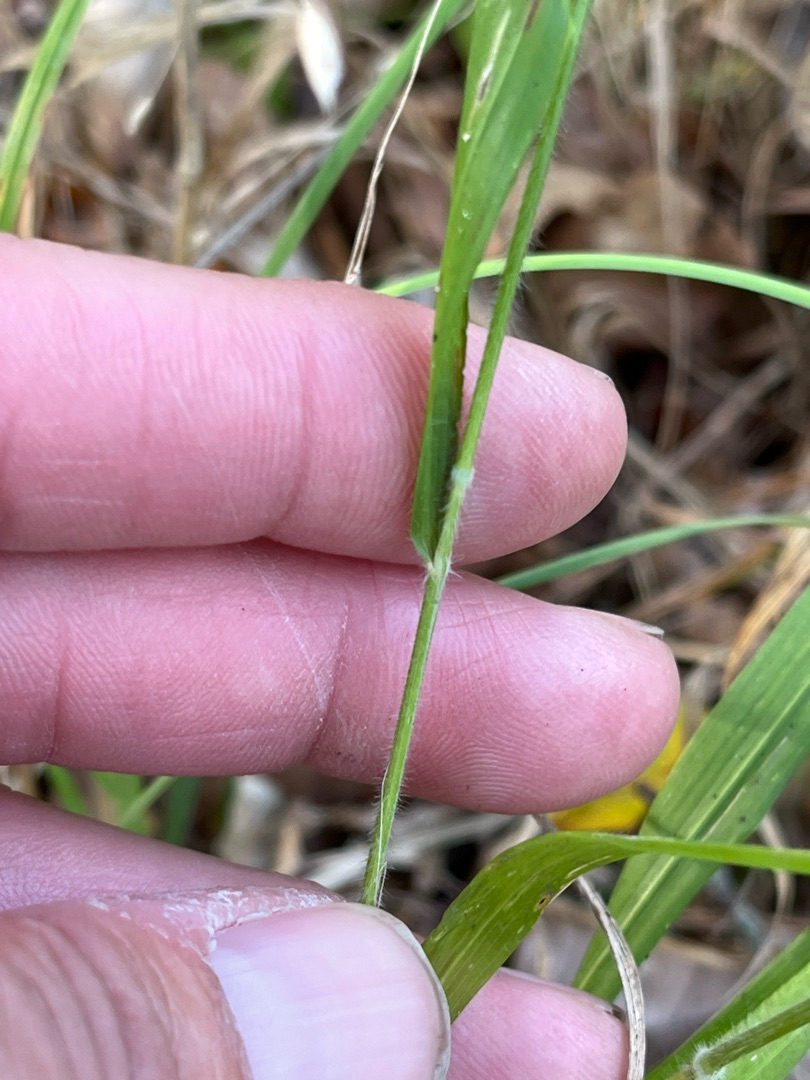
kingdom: Plantae
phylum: Tracheophyta
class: Liliopsida
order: Poales
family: Poaceae
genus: Brachypodium
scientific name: Brachypodium sylvaticum
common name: Skov-stilkaks
